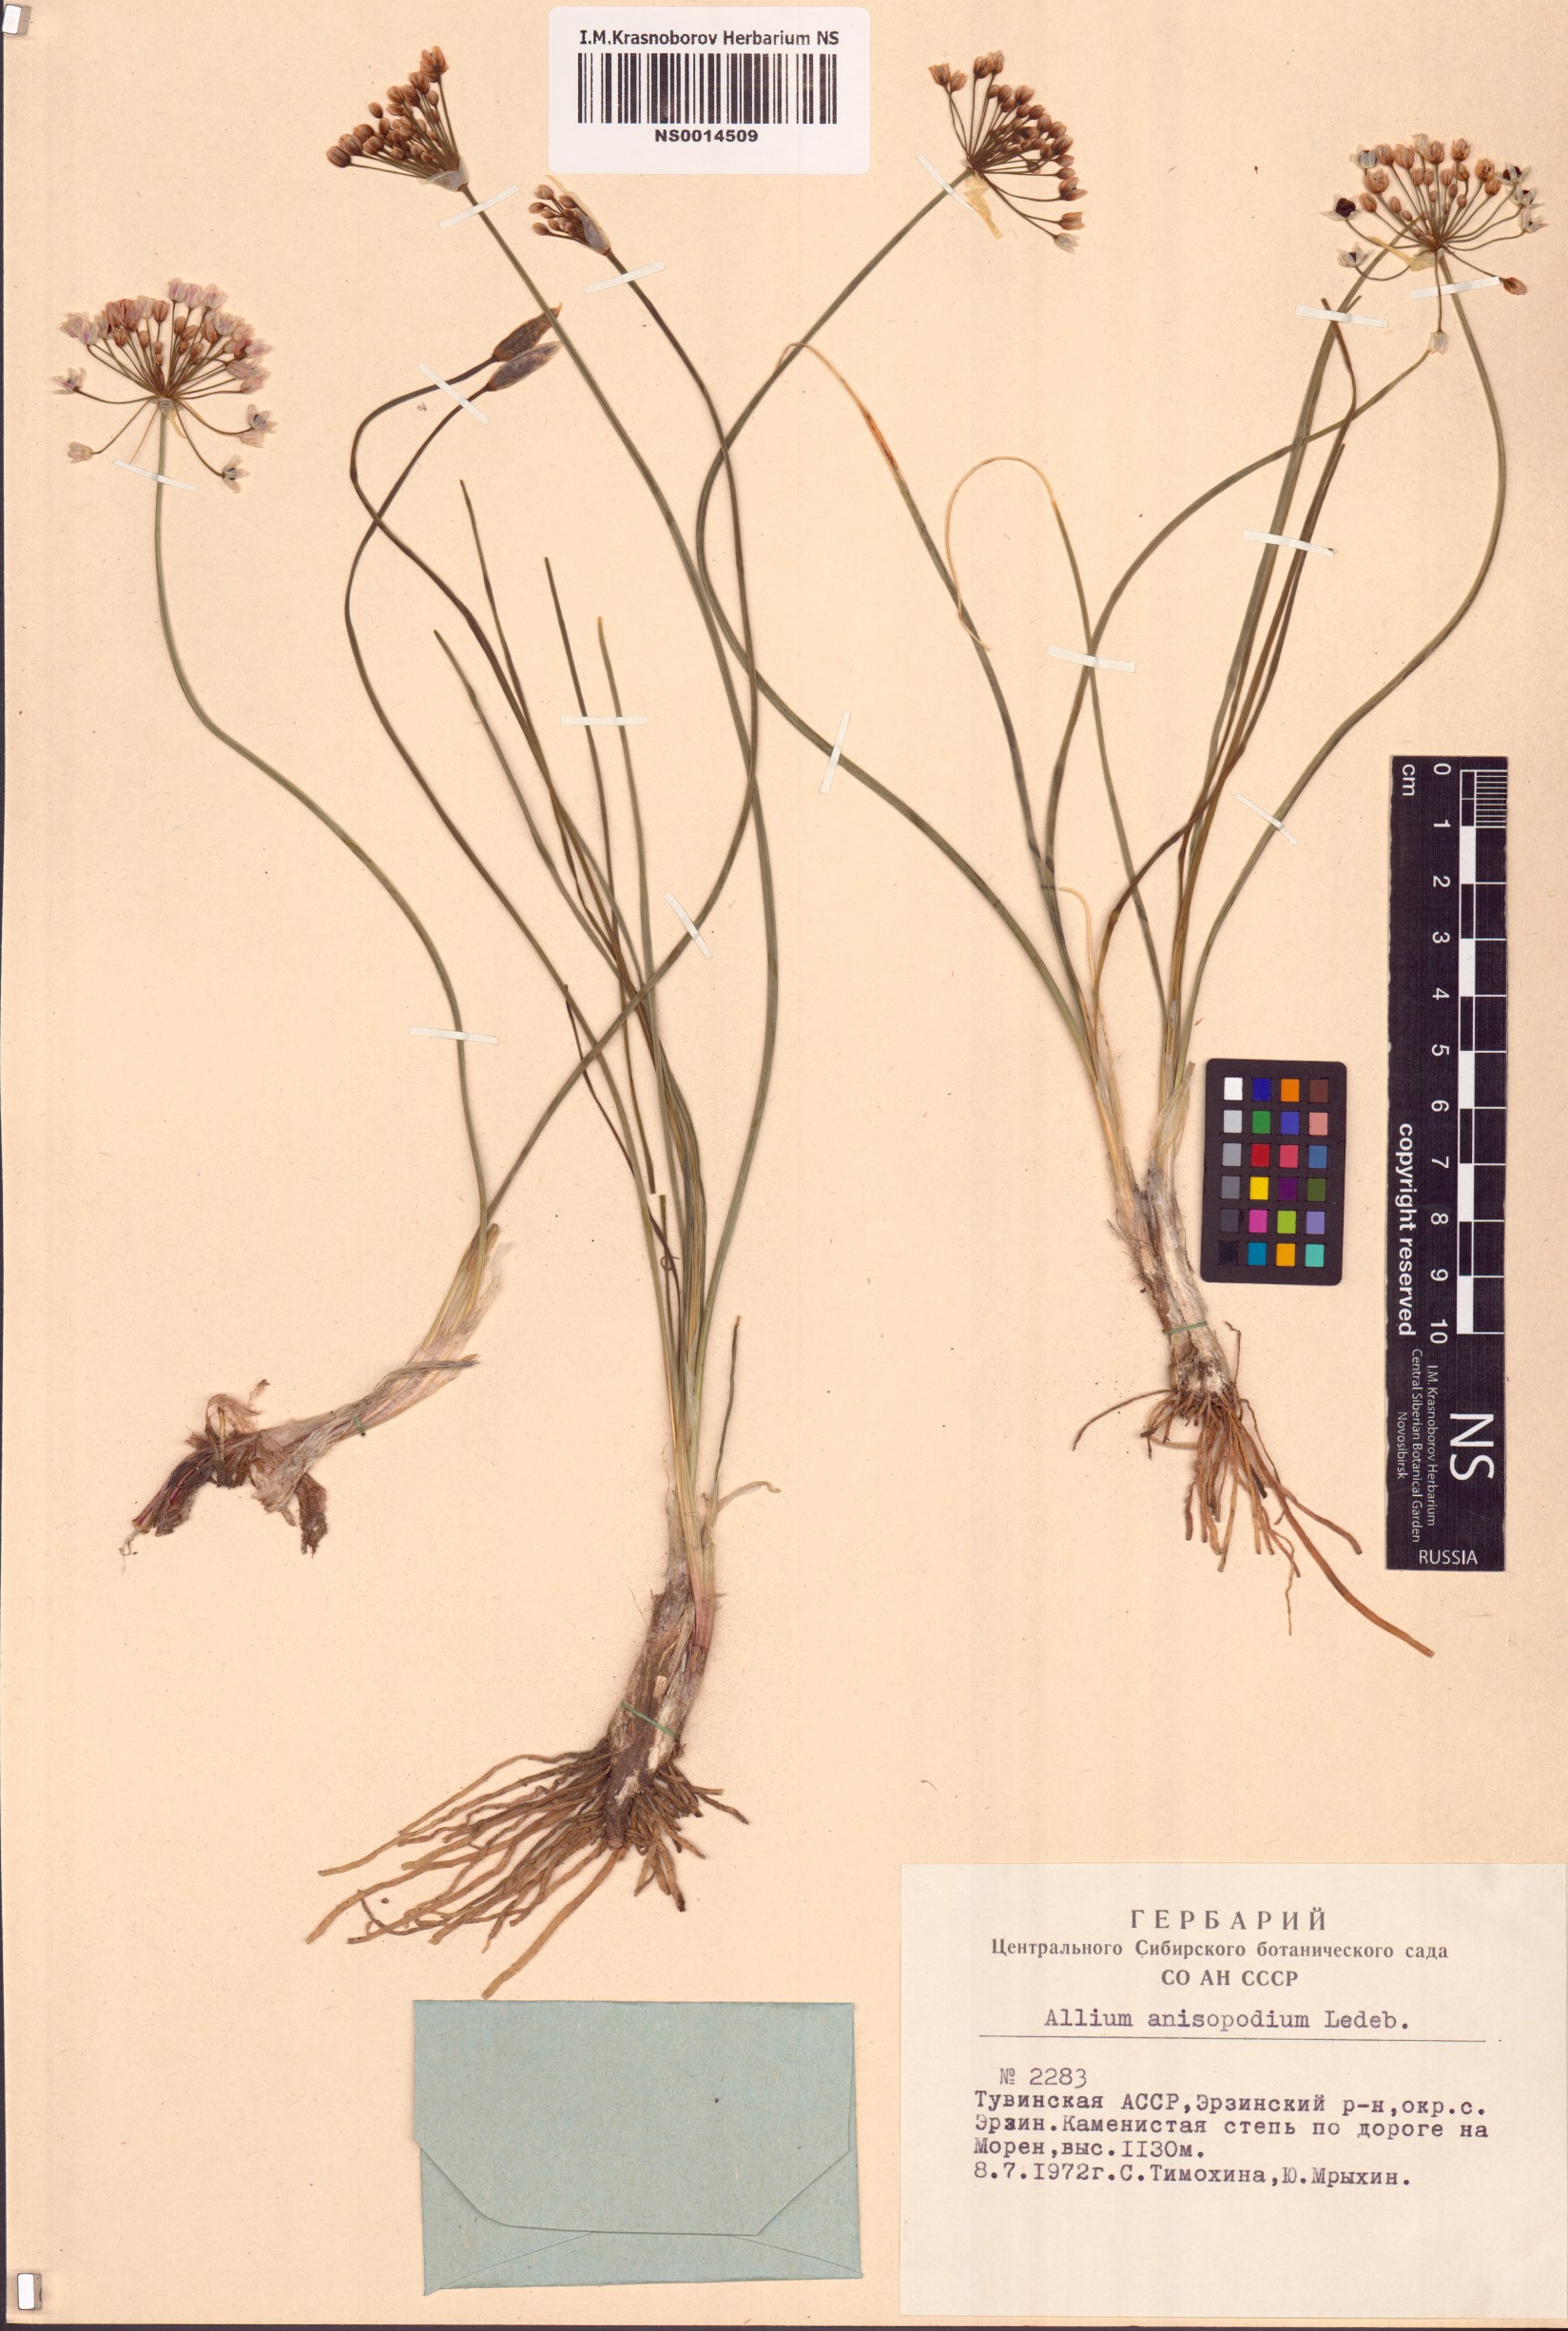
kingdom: Plantae
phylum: Tracheophyta
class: Liliopsida
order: Asparagales
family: Amaryllidaceae
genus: Allium
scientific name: Allium anisopodium
